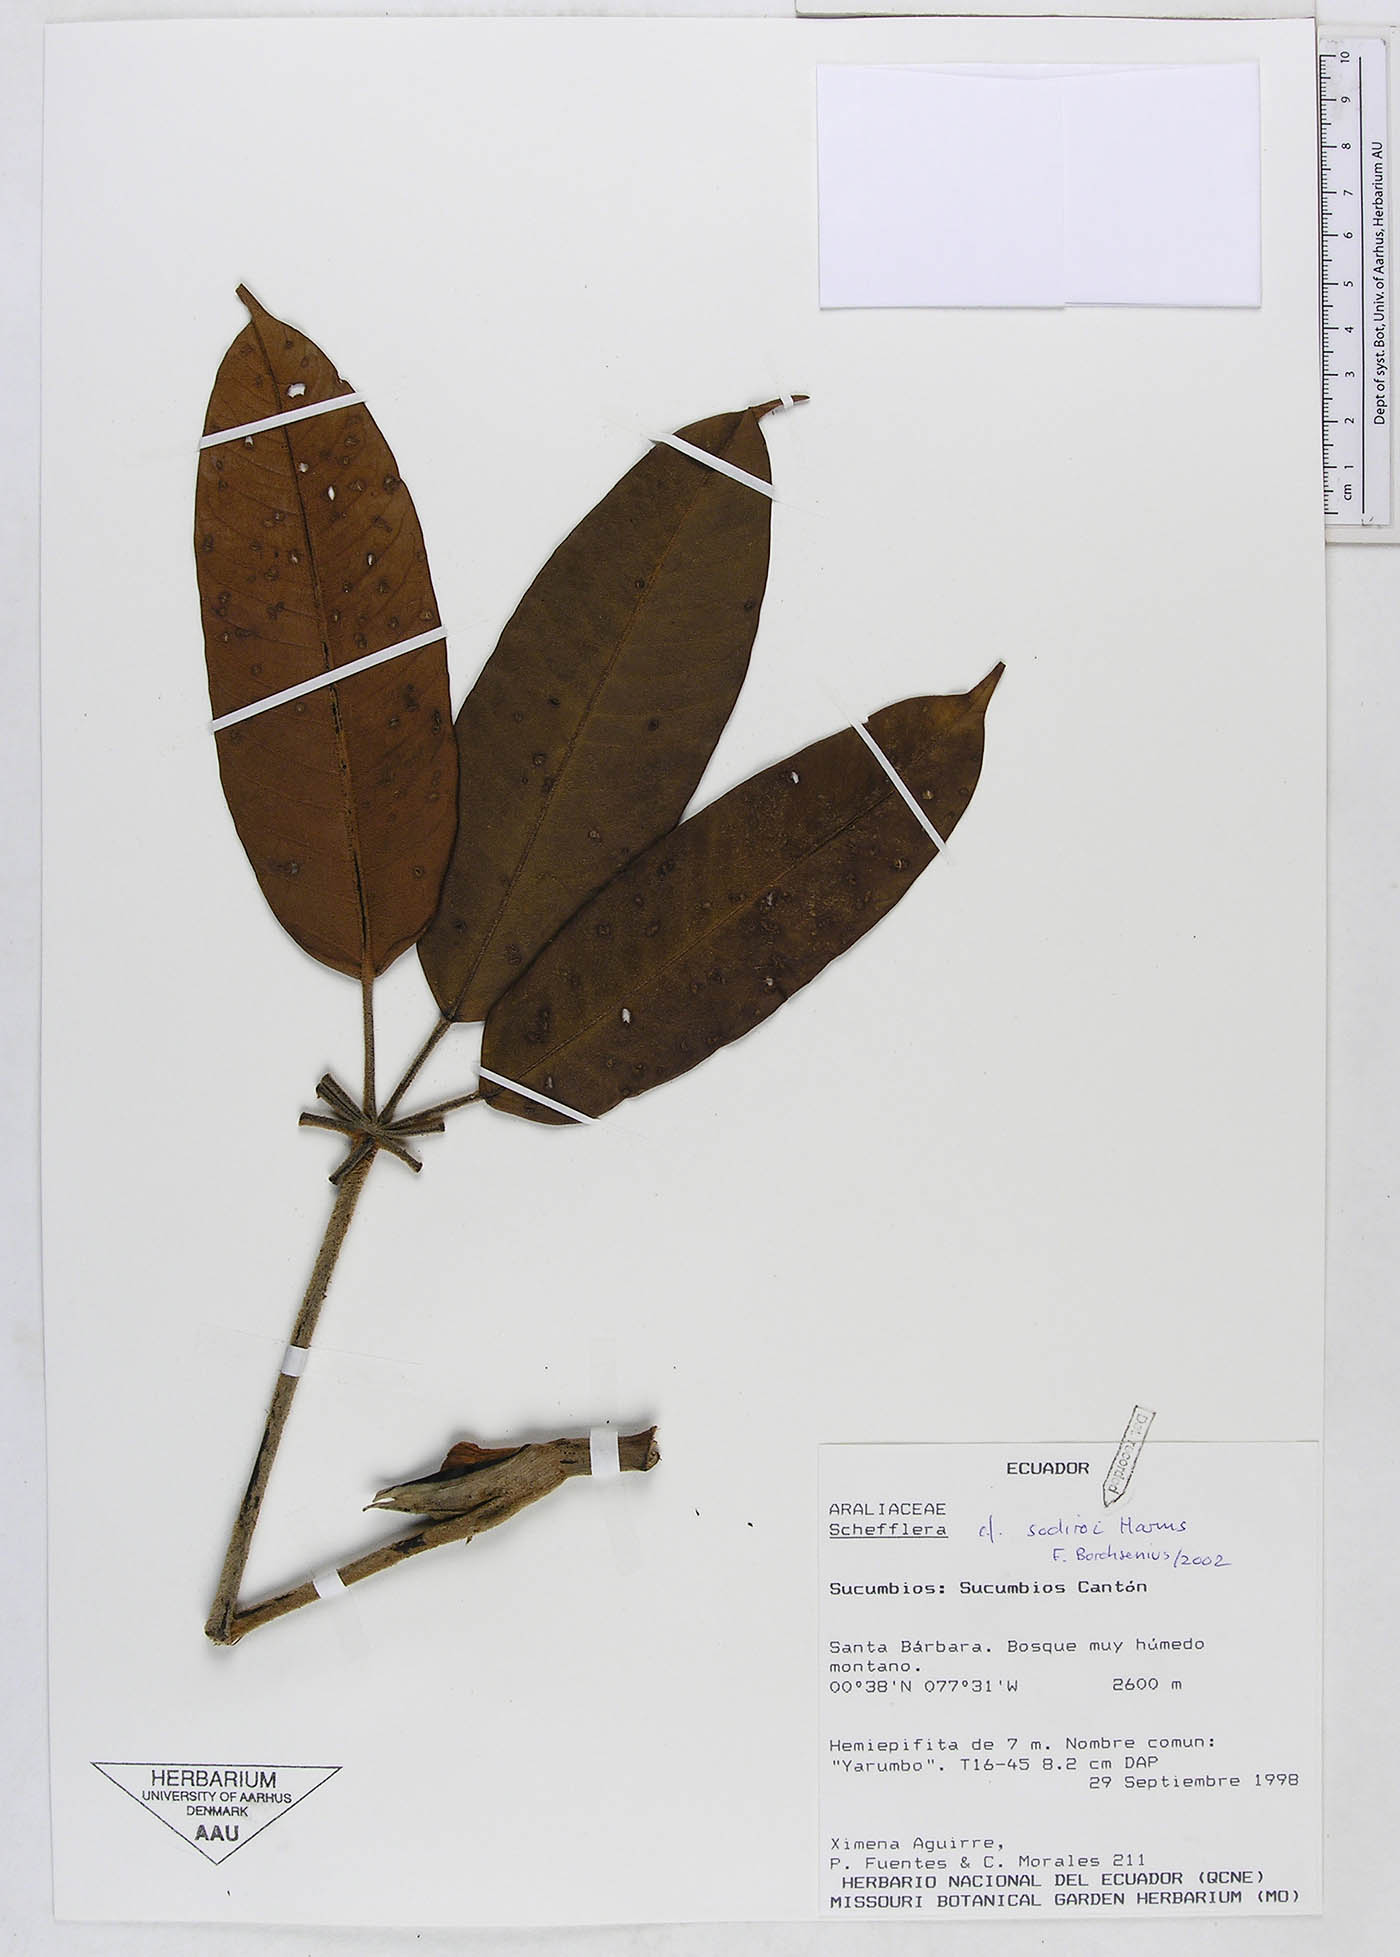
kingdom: Plantae
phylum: Tracheophyta
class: Magnoliopsida
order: Apiales
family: Araliaceae
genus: Sciodaphyllum
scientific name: Sciodaphyllum sodiroi
